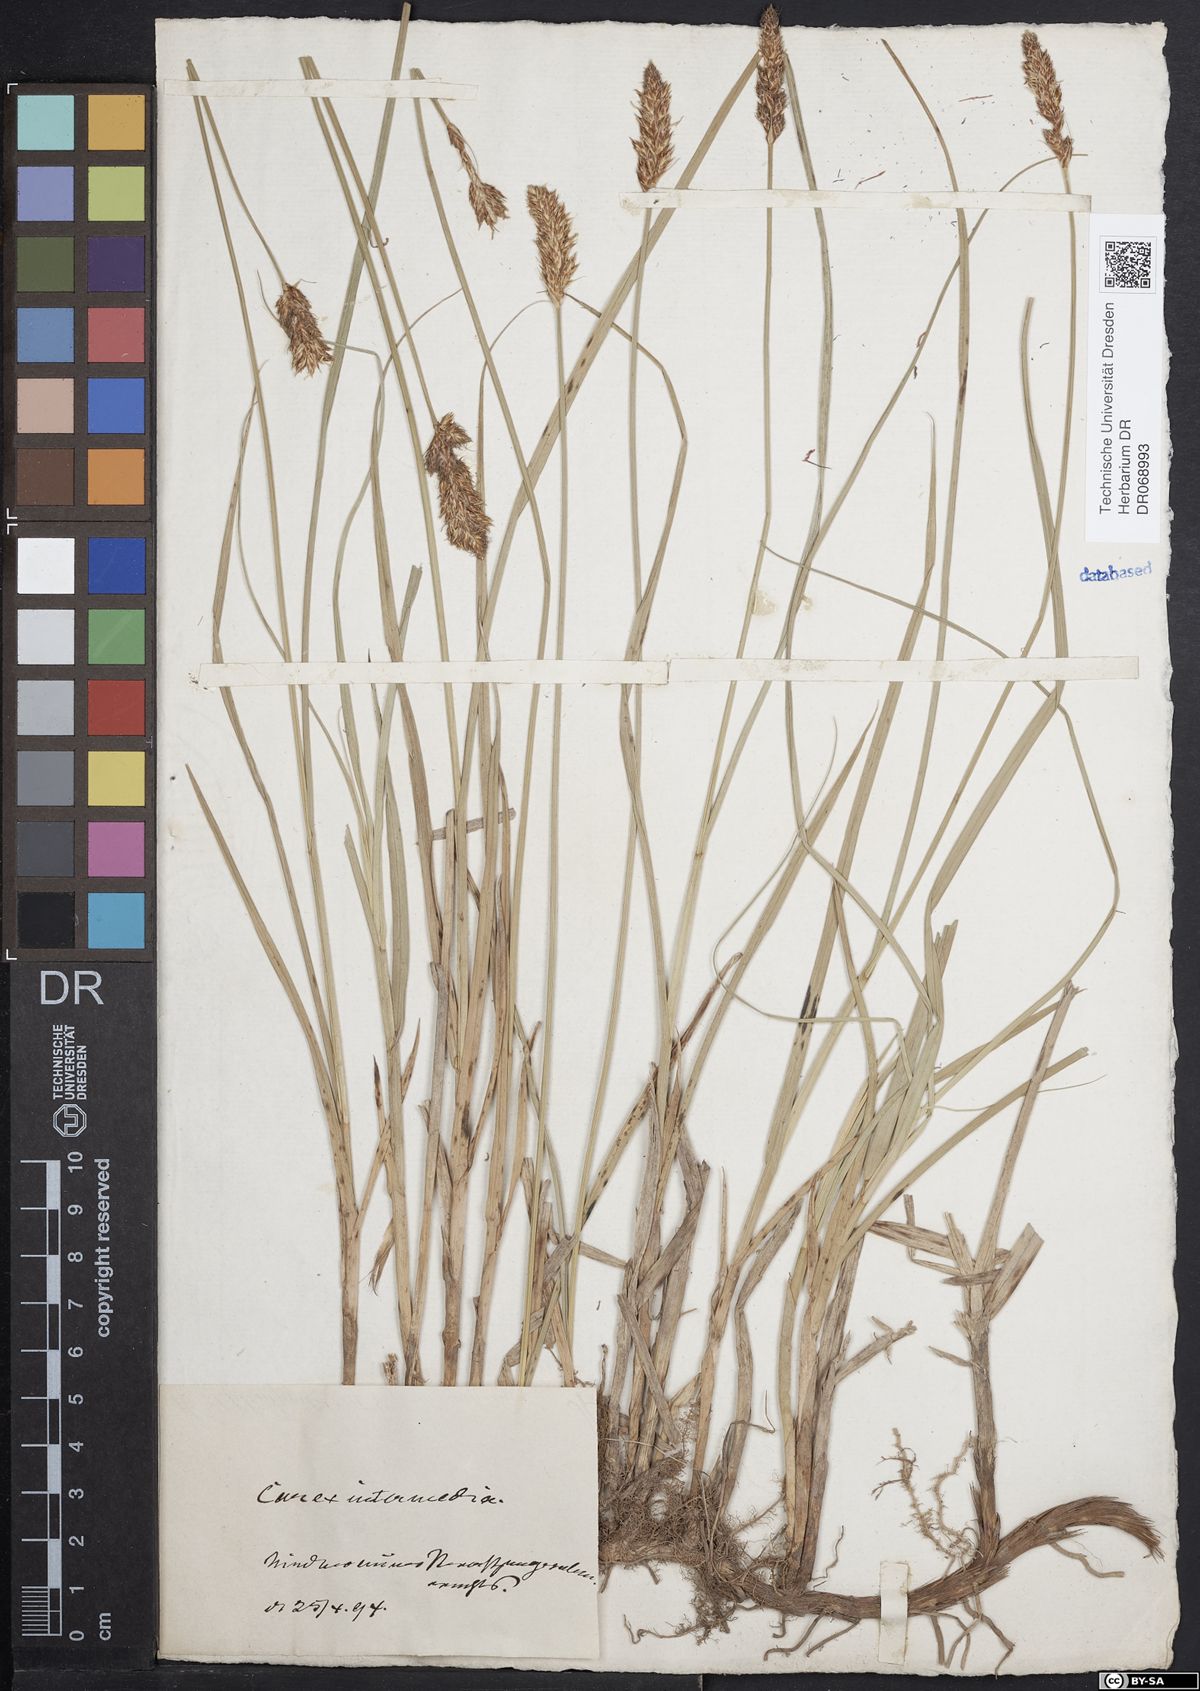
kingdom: Plantae
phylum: Tracheophyta
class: Liliopsida
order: Poales
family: Cyperaceae
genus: Carex
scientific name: Carex disticha
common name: Brown sedge
